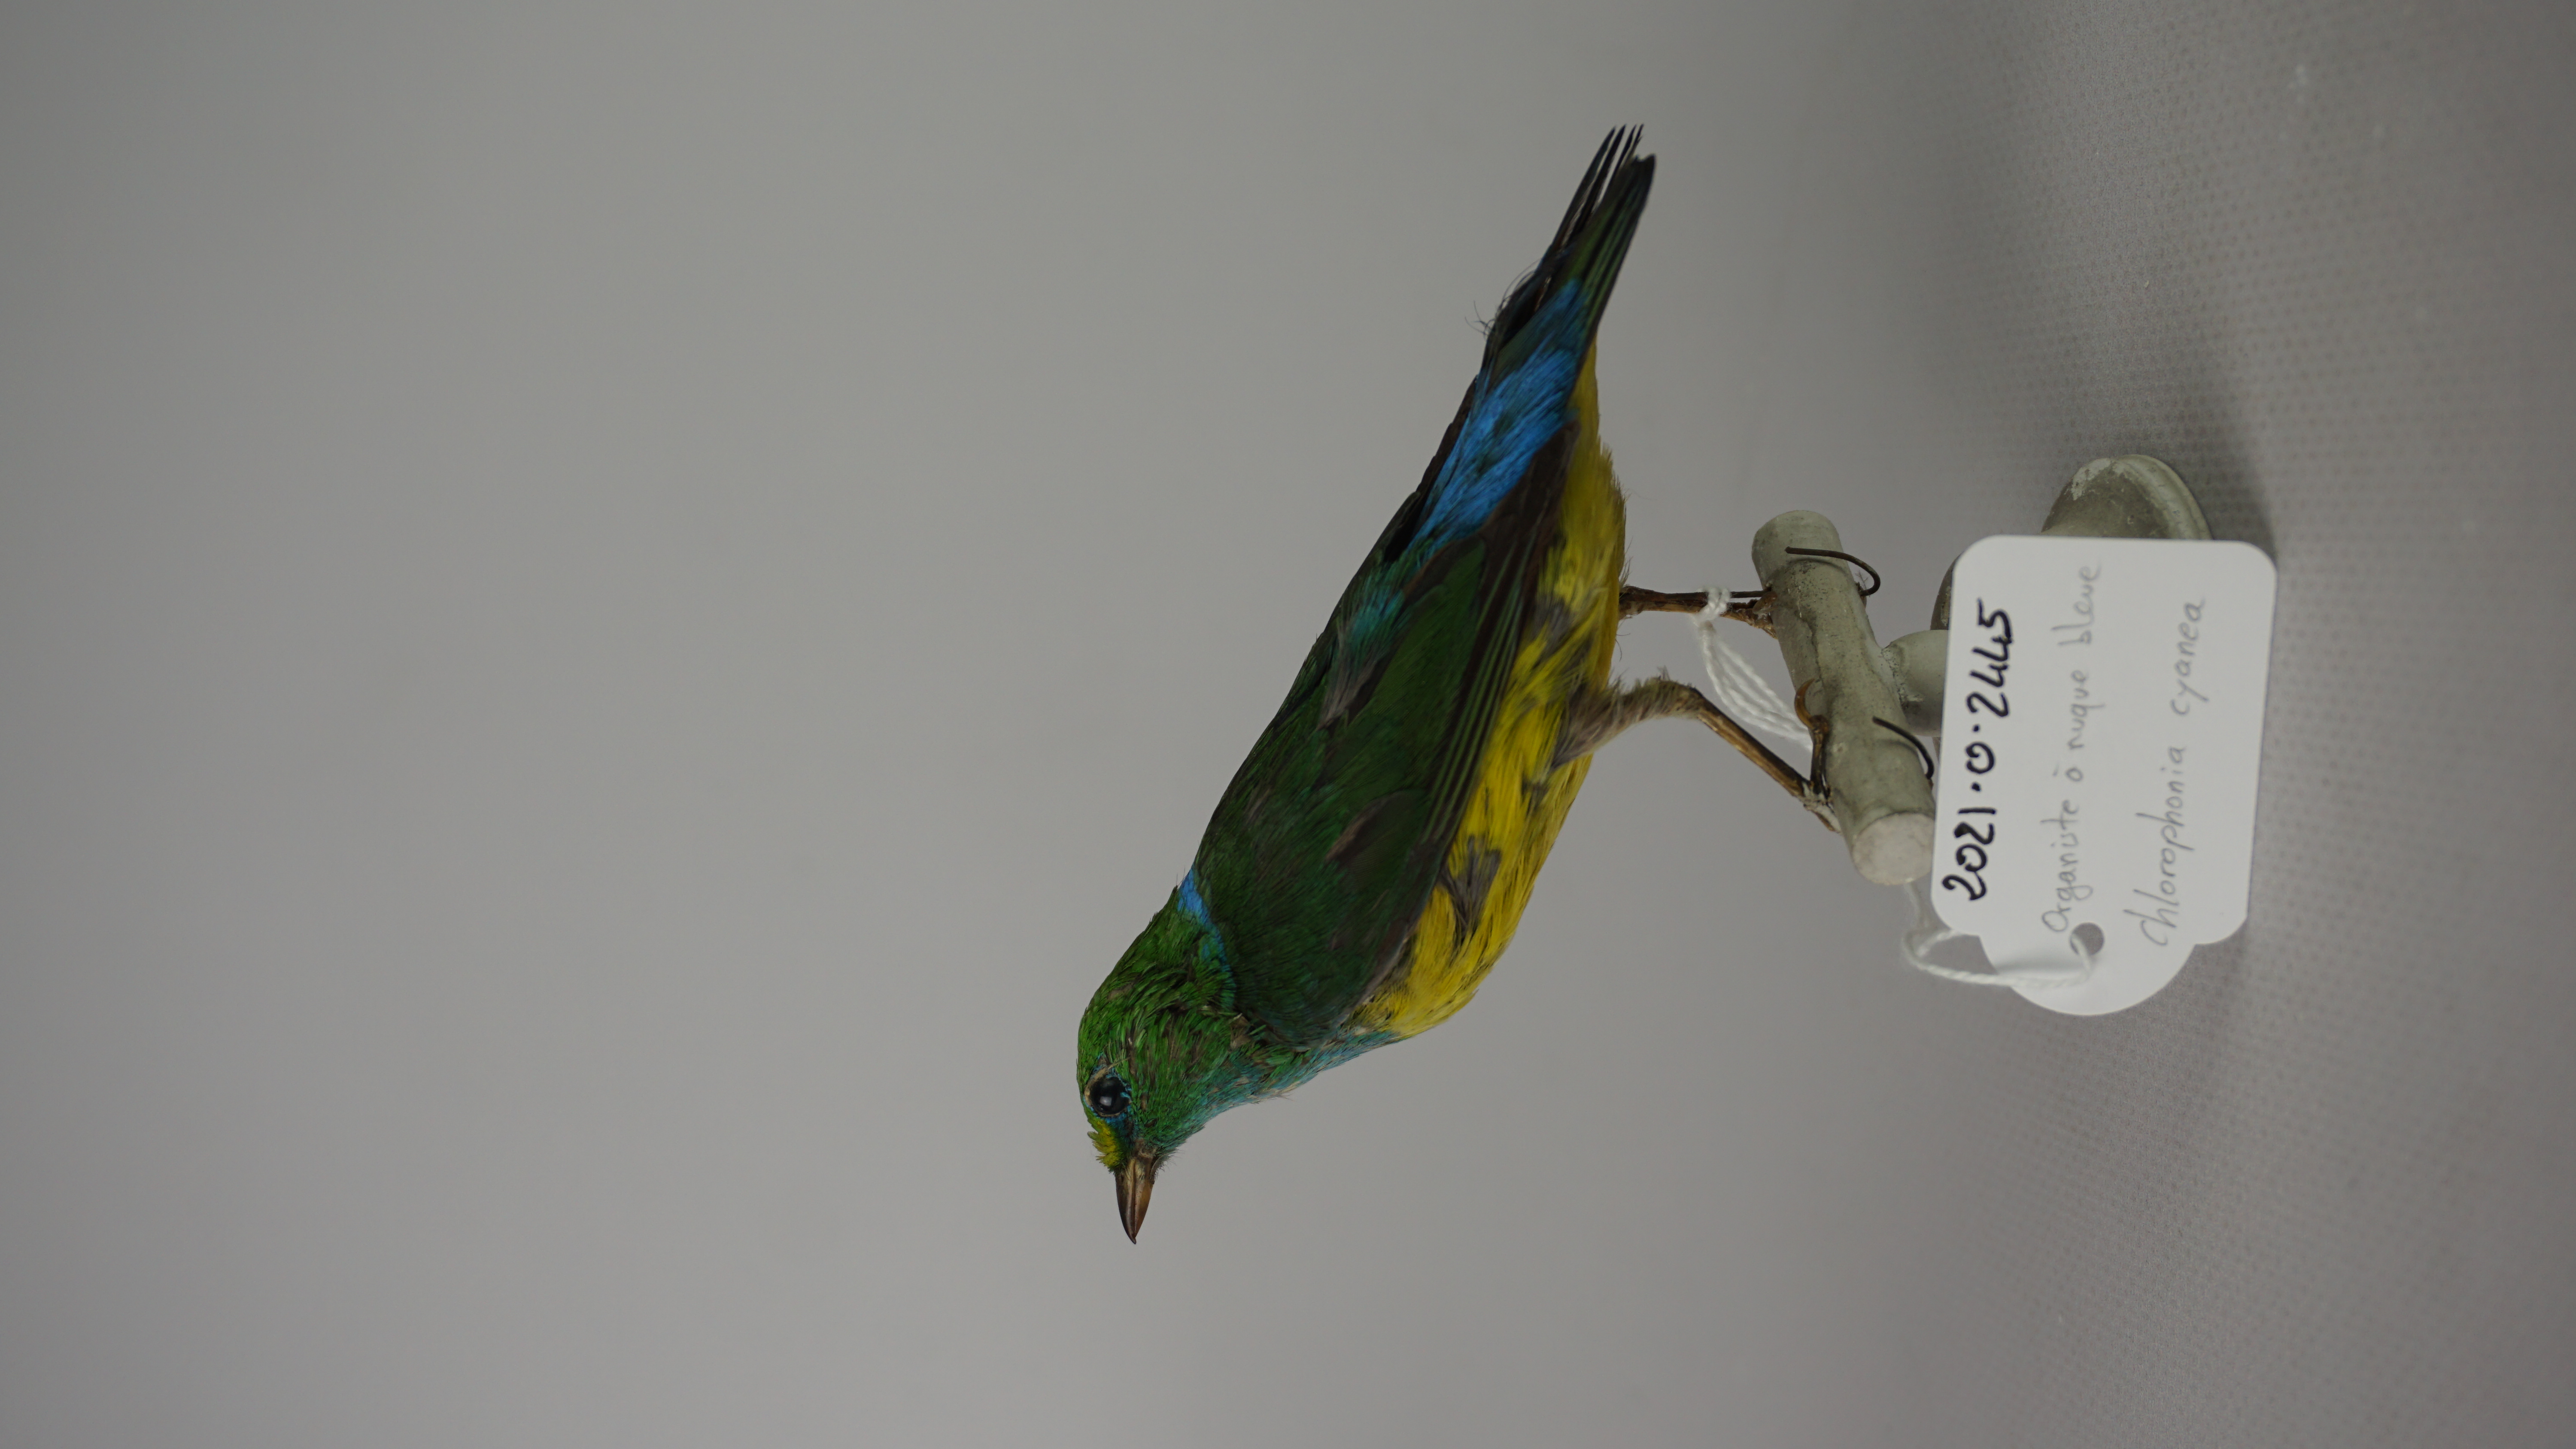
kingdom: Animalia
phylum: Chordata
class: Aves
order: Passeriformes
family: Fringillidae
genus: Chlorophonia
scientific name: Chlorophonia cyanea
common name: Blue-naped chlorophonia
